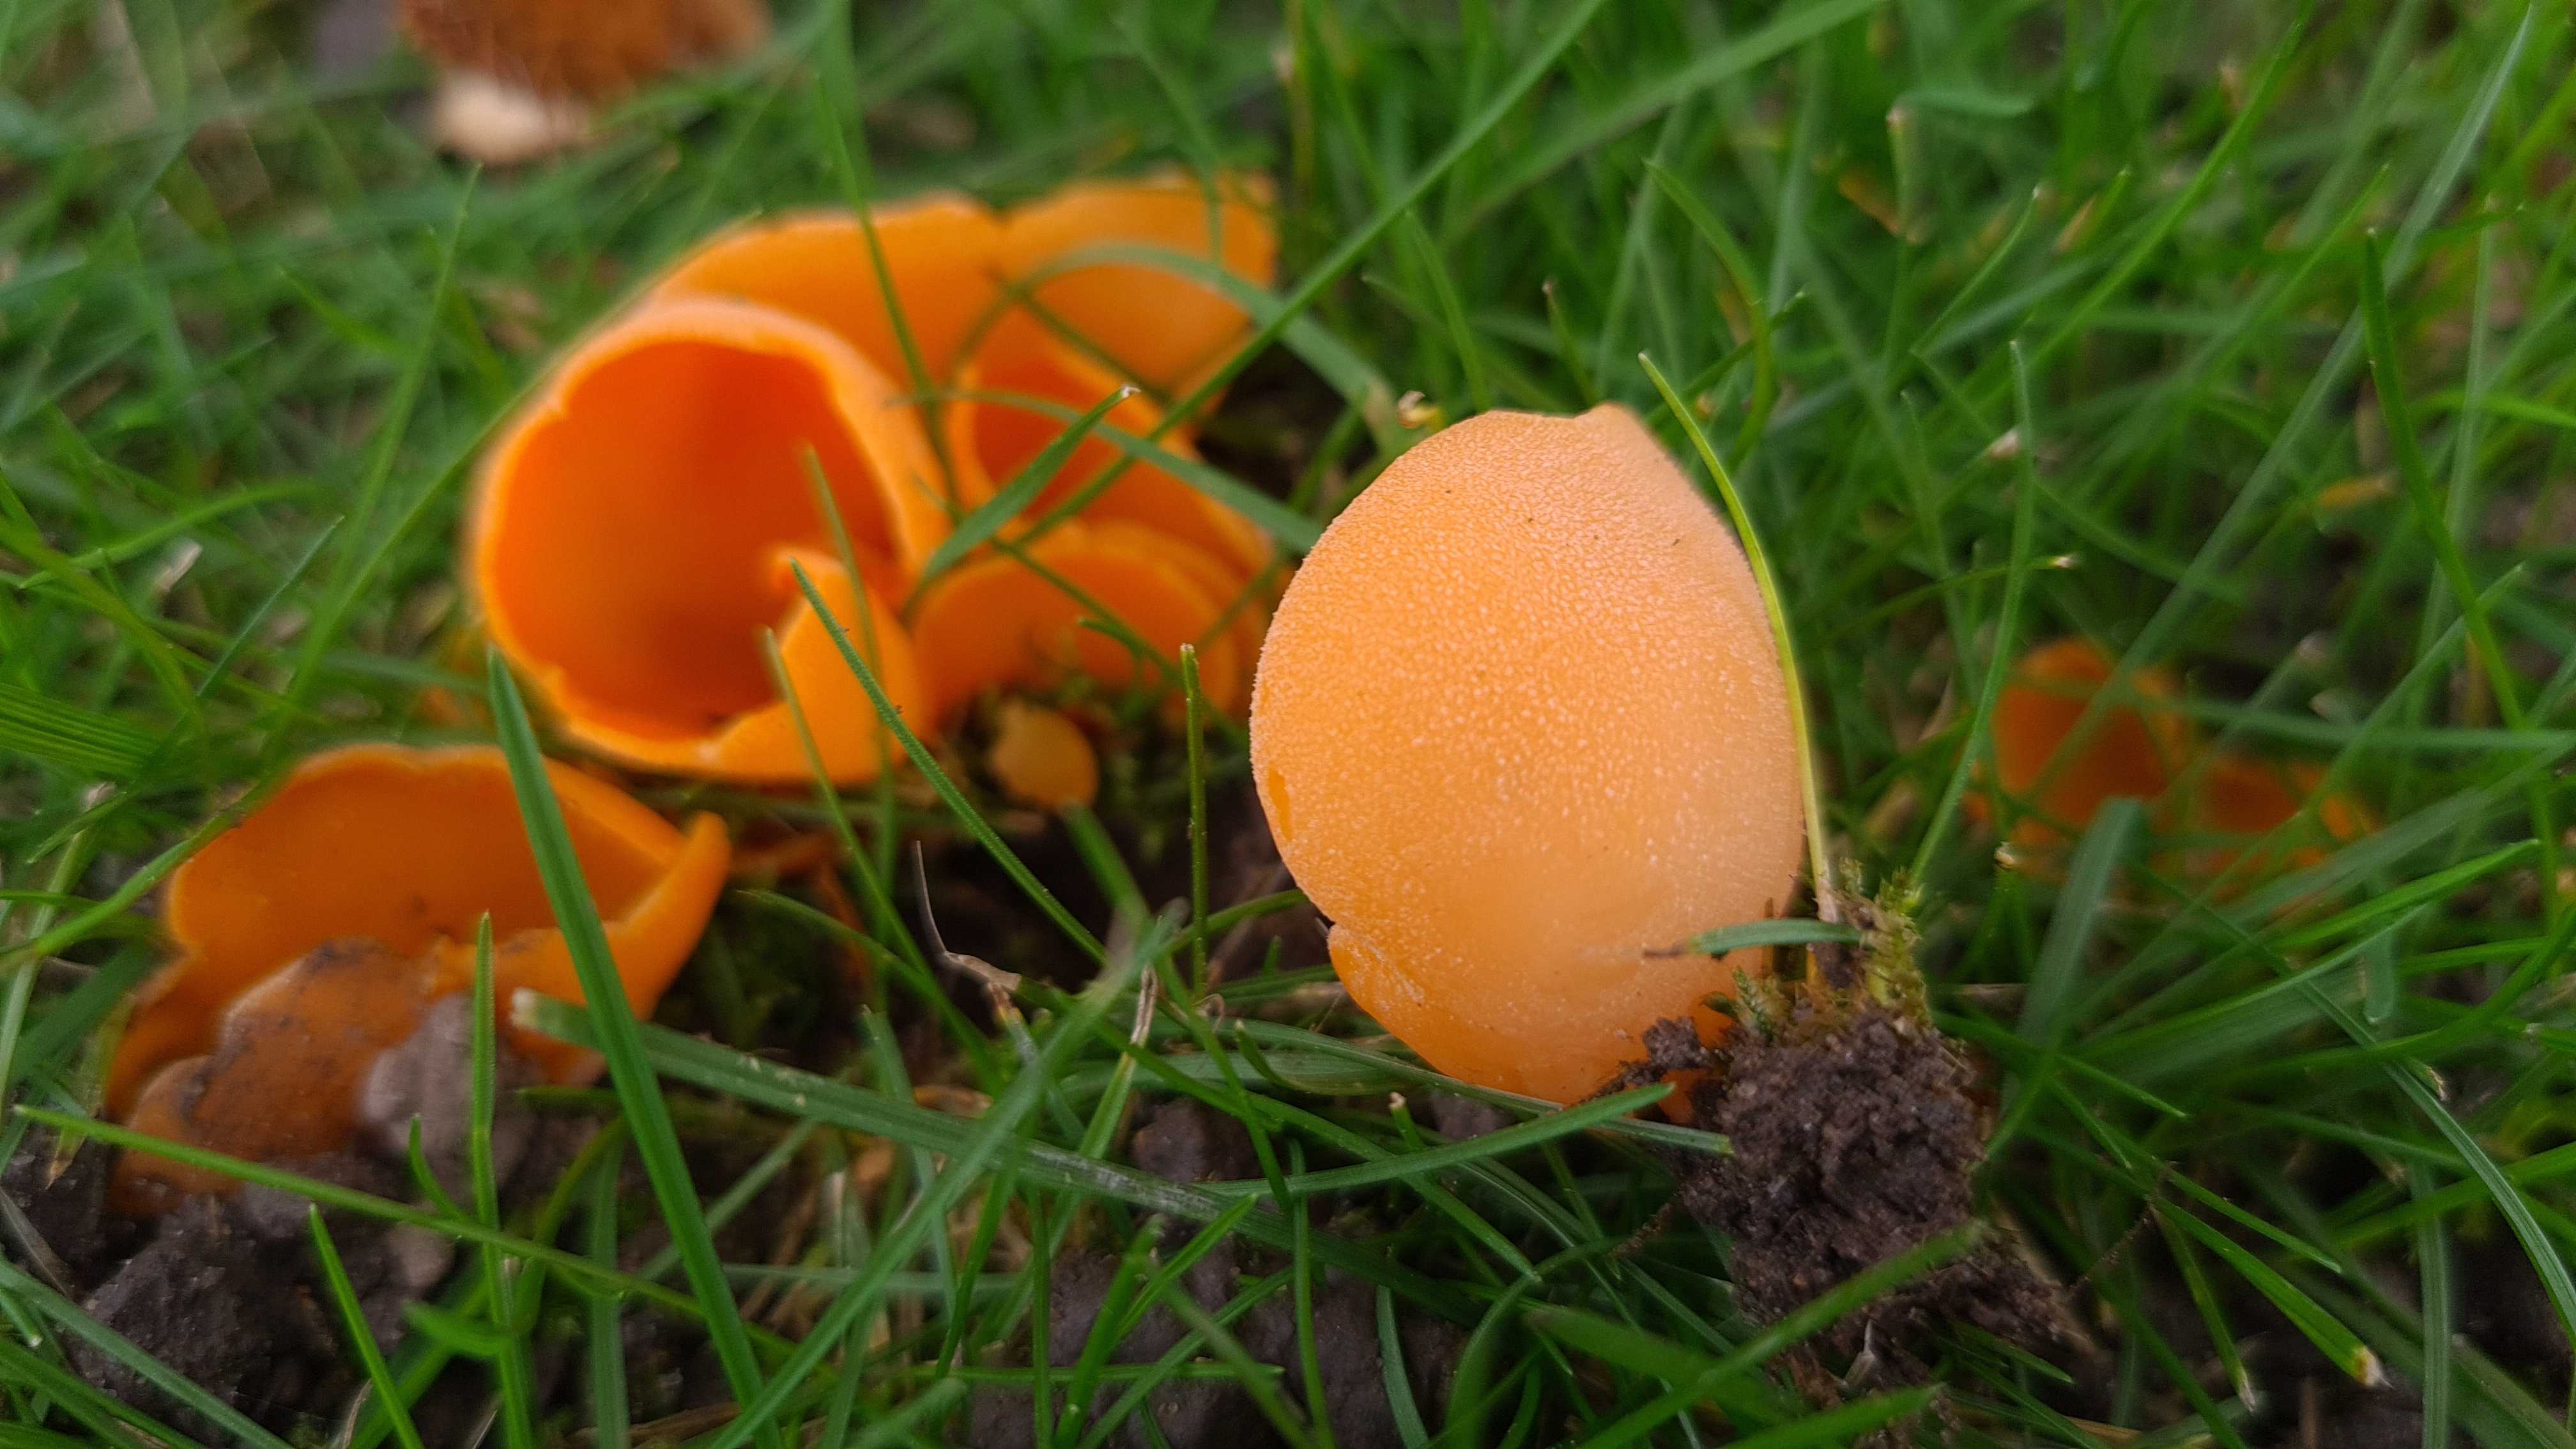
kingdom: Fungi
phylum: Ascomycota
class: Pezizomycetes
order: Pezizales
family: Pyronemataceae
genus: Aleuria
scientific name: Aleuria aurantia
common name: almindelig orangebæger
